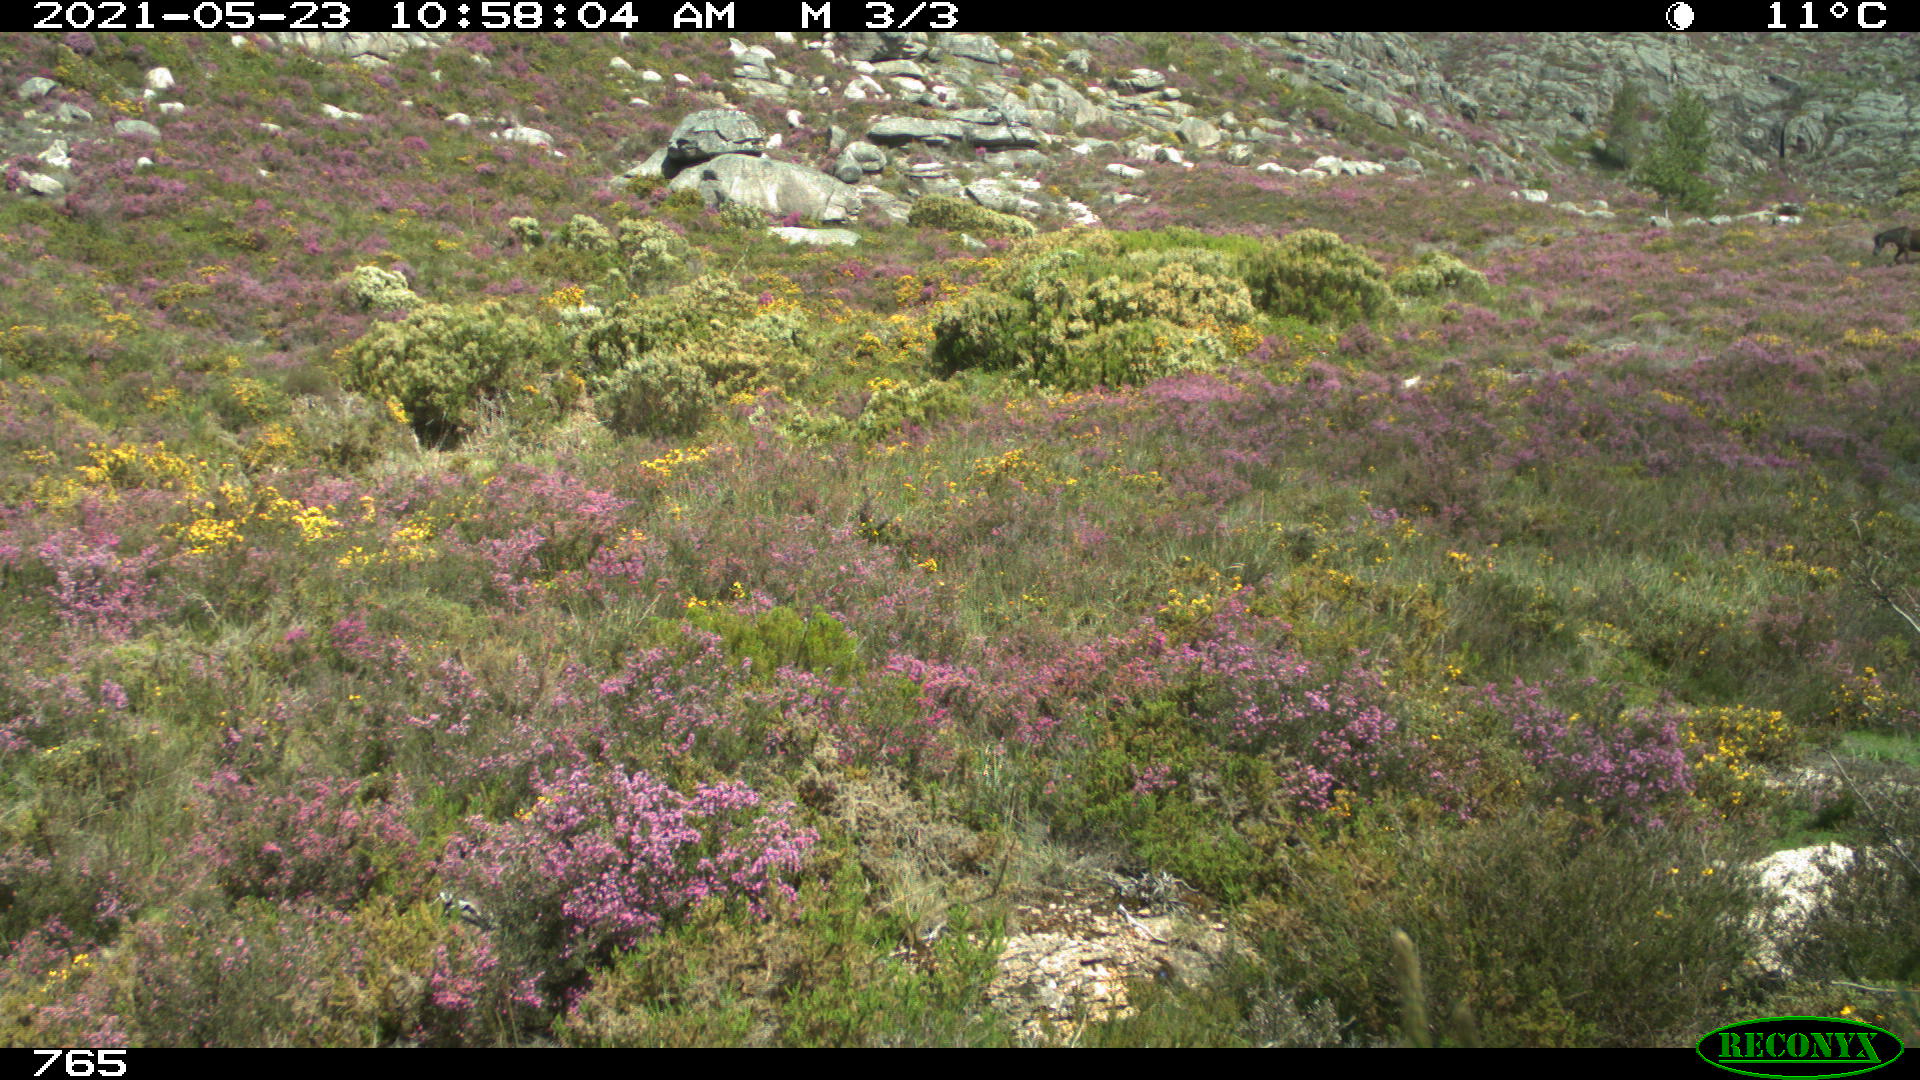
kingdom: Animalia
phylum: Chordata
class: Mammalia
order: Perissodactyla
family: Equidae
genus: Equus
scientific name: Equus caballus
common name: Horse
